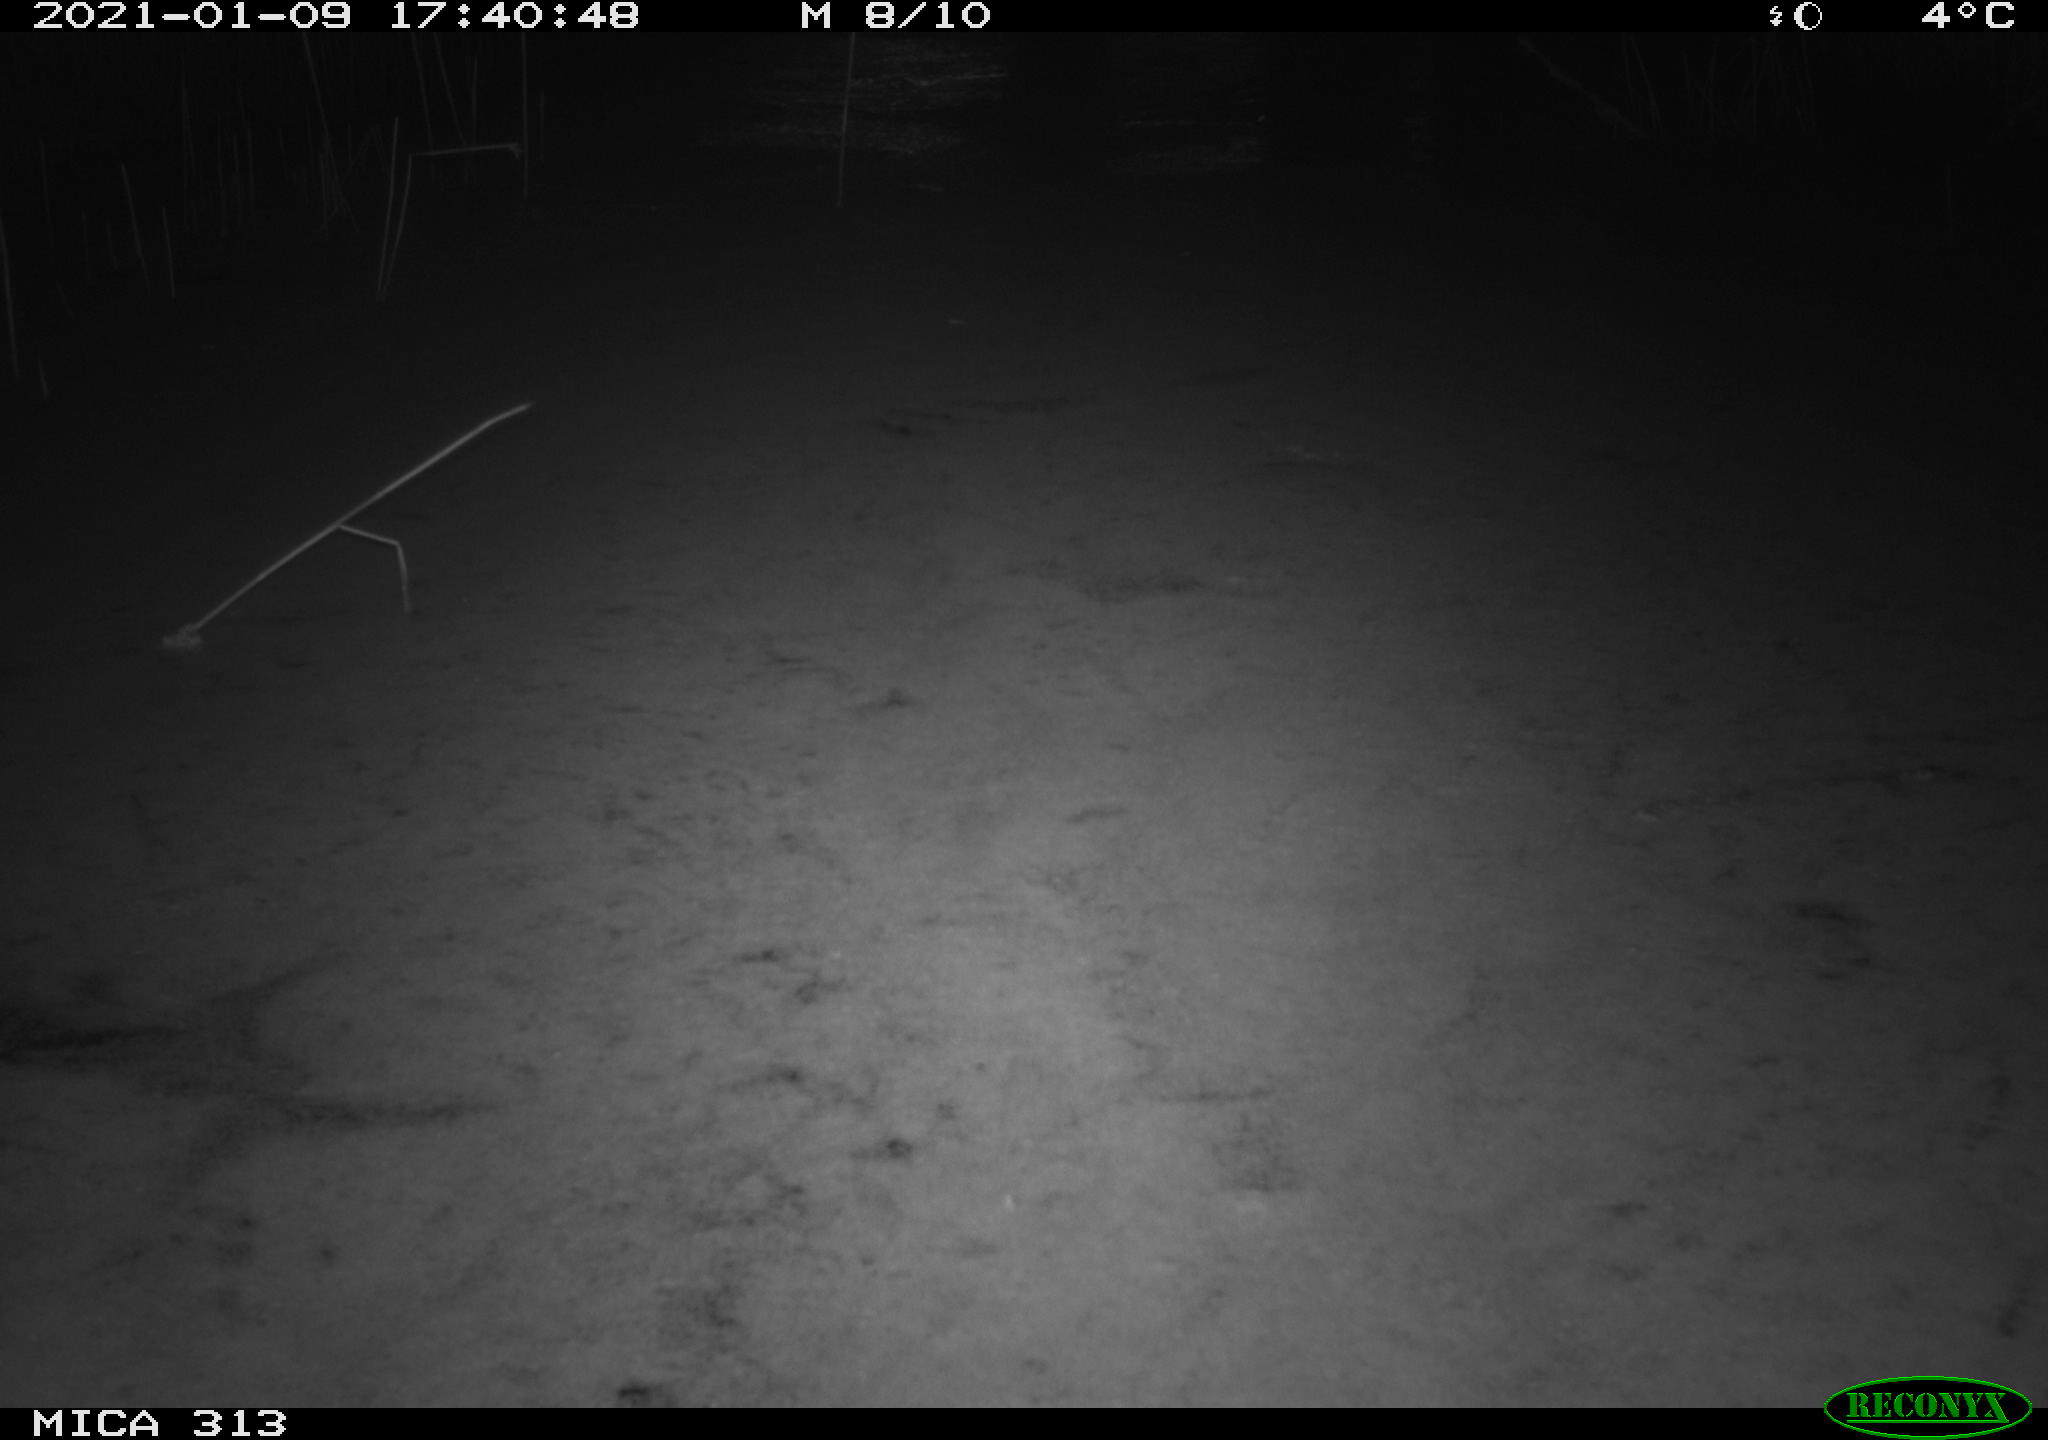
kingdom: Animalia
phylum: Chordata
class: Aves
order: Gruiformes
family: Rallidae
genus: Fulica
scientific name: Fulica atra
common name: Eurasian coot
